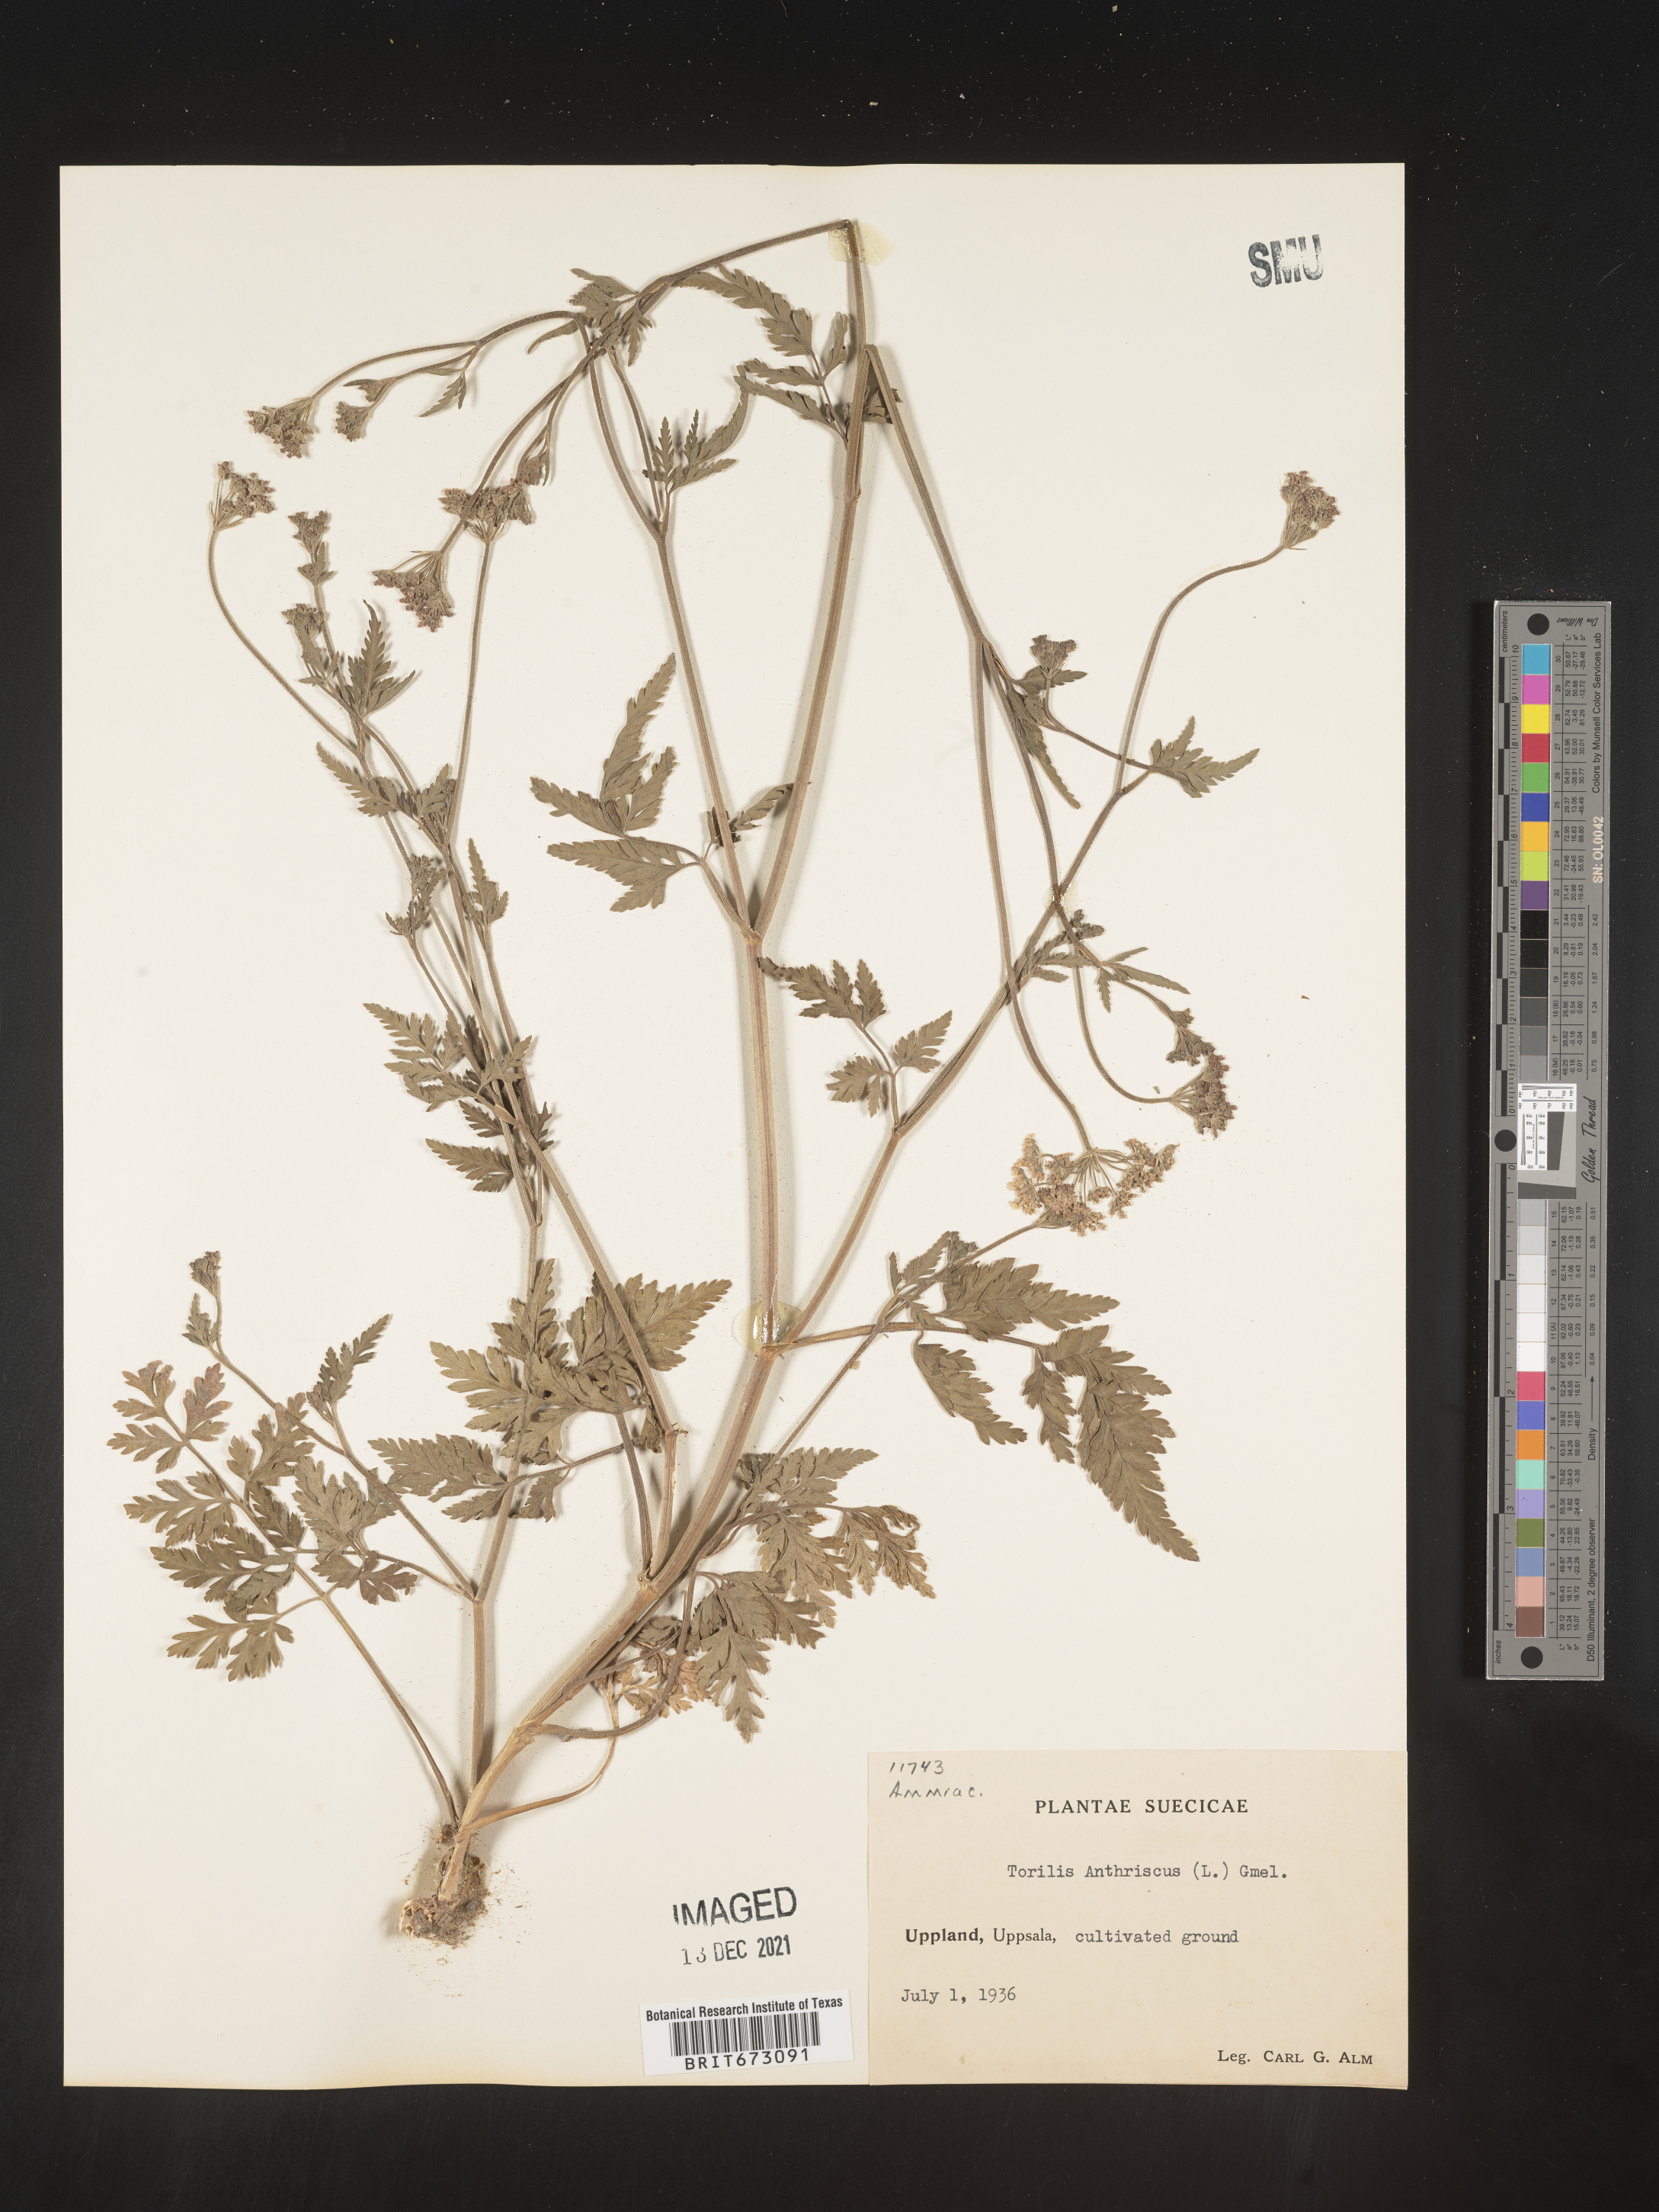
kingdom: Plantae
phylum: Tracheophyta
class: Magnoliopsida
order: Apiales
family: Apiaceae
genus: Torilis
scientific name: Torilis
